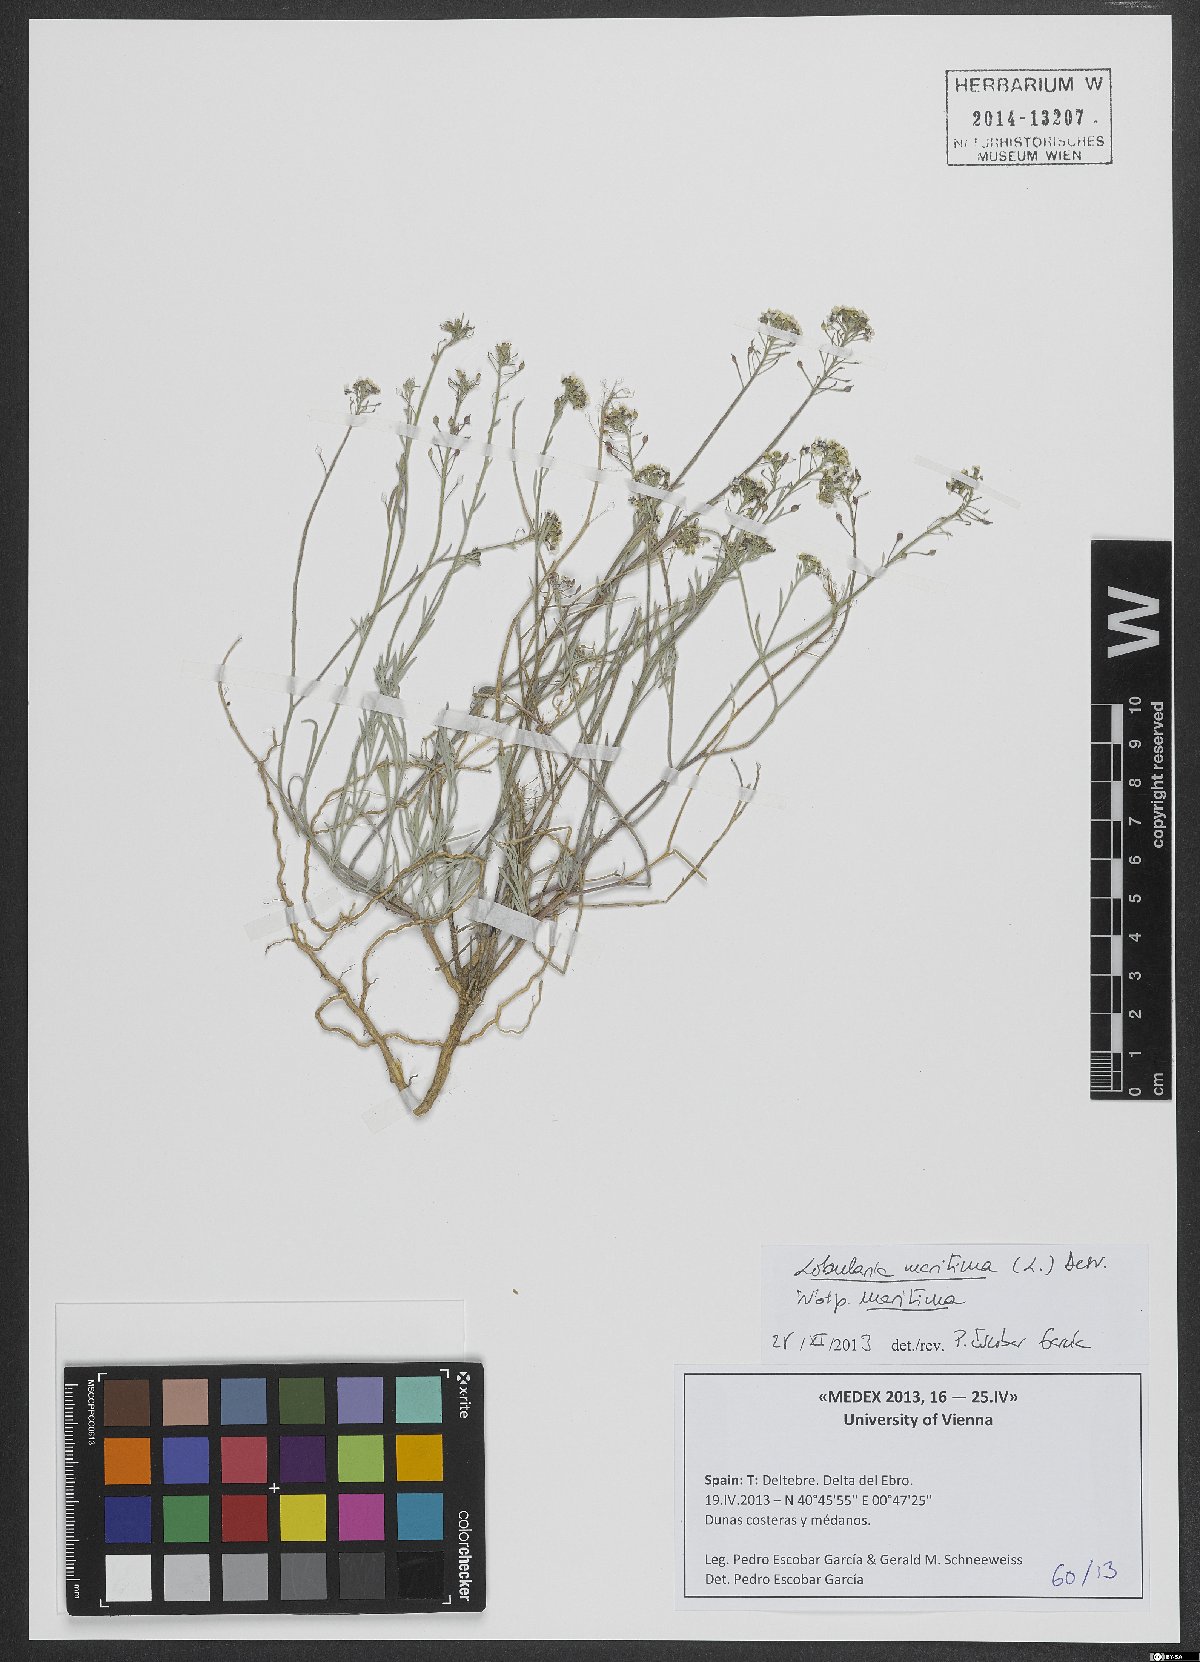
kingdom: Plantae
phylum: Tracheophyta
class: Magnoliopsida
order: Brassicales
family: Brassicaceae
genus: Lobularia
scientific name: Lobularia maritima
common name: Sweet alison
